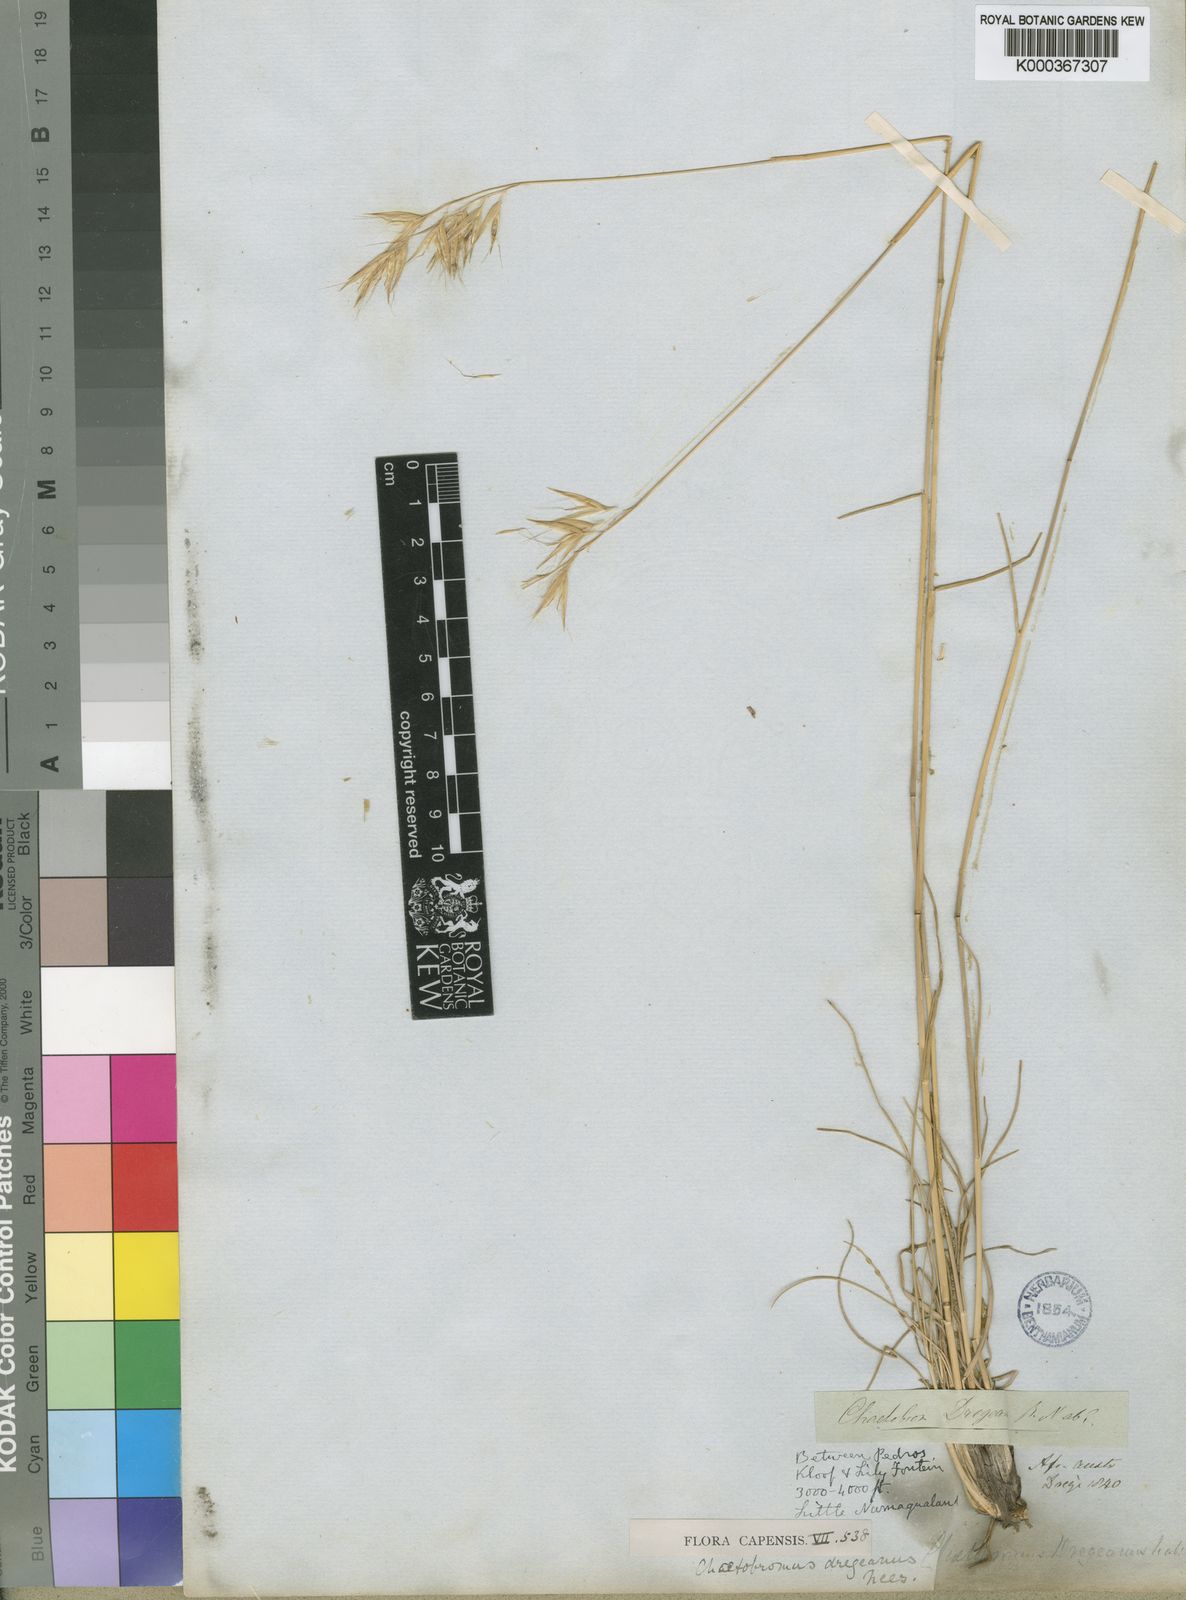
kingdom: Plantae
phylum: Tracheophyta
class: Liliopsida
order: Poales
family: Poaceae
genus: Chaetobromus
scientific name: Chaetobromus involucratus
